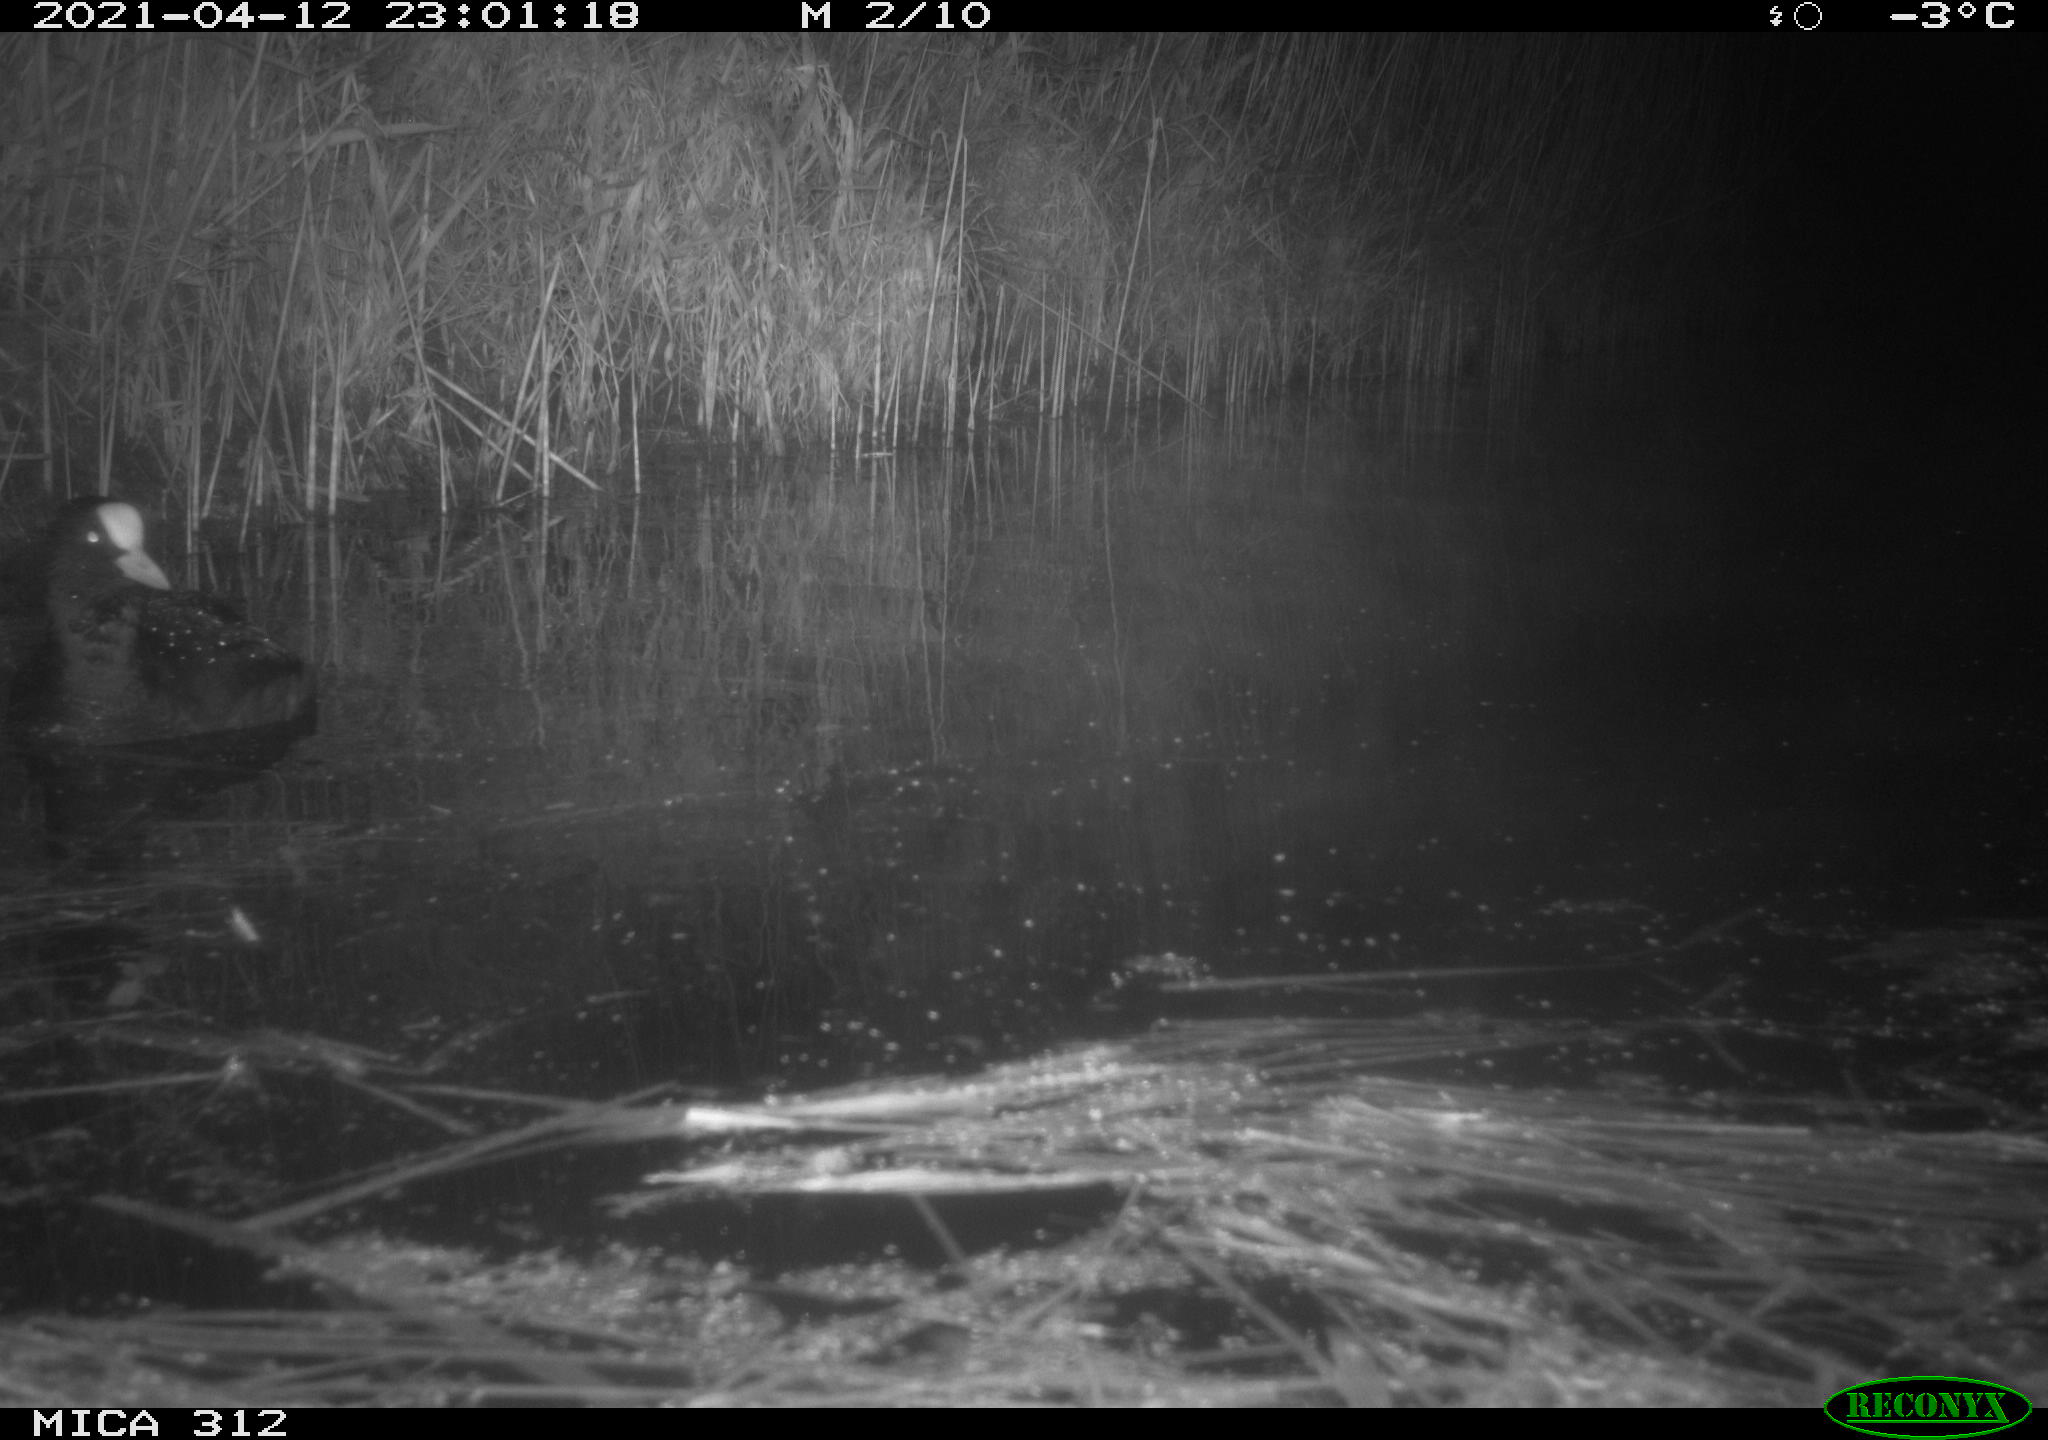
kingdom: Animalia
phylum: Chordata
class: Aves
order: Gruiformes
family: Rallidae
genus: Fulica
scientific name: Fulica atra
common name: Eurasian coot
